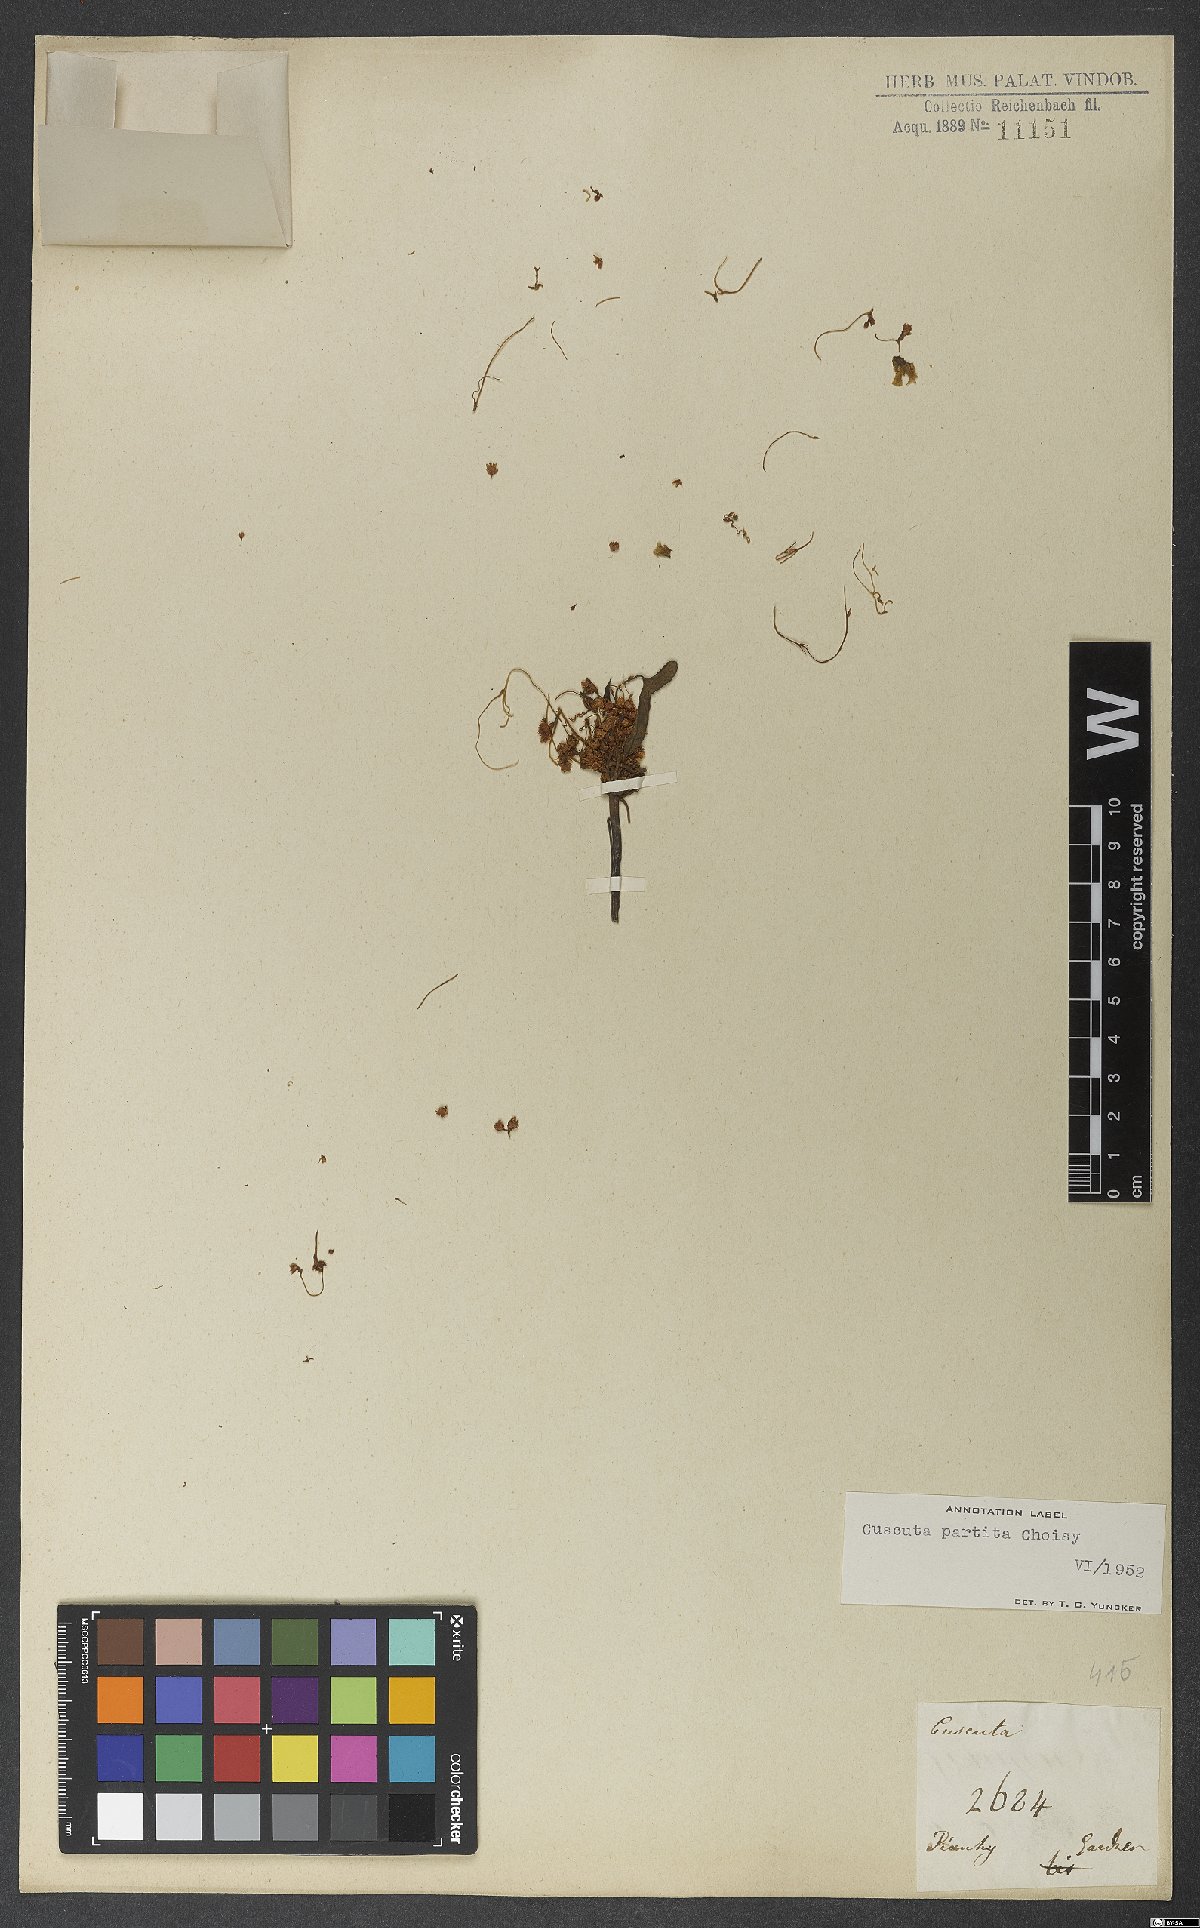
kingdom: Plantae
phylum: Tracheophyta
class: Magnoliopsida
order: Solanales
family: Convolvulaceae
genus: Cuscuta
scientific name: Cuscuta partita
